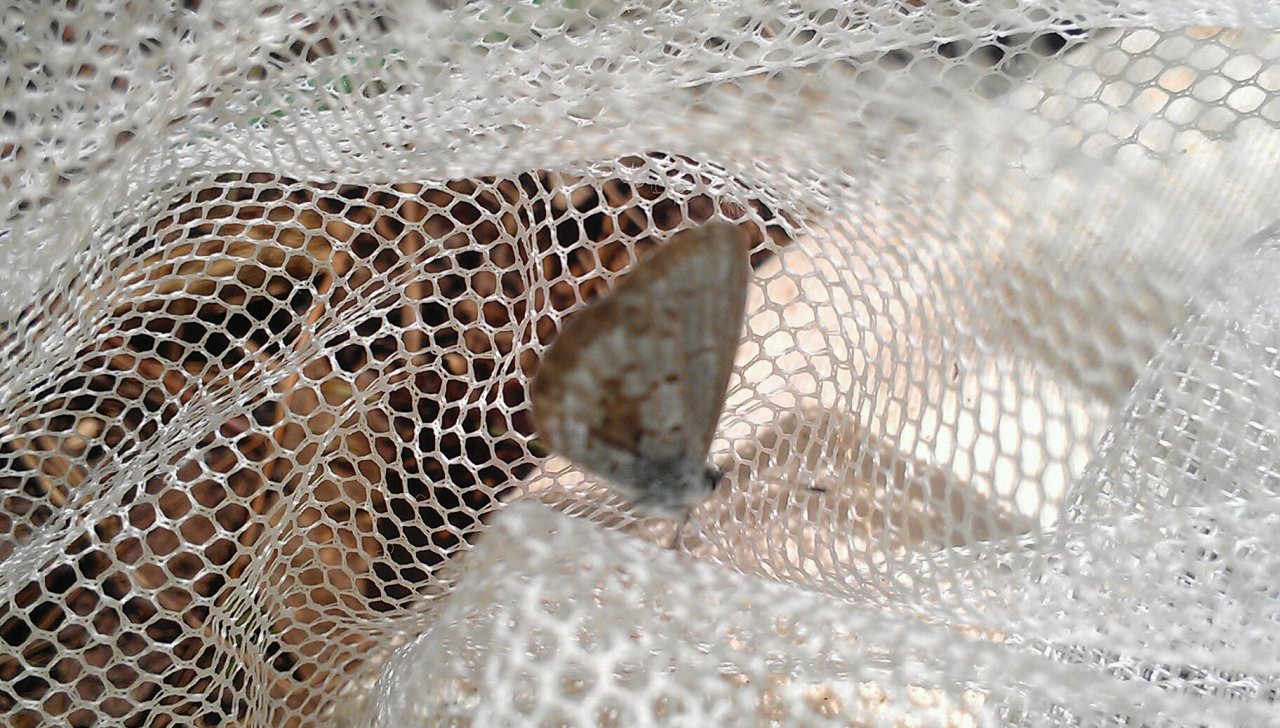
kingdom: Animalia
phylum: Arthropoda
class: Insecta
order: Lepidoptera
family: Lycaenidae
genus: Celastrina
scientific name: Celastrina lucia
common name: Northern Spring Azure
